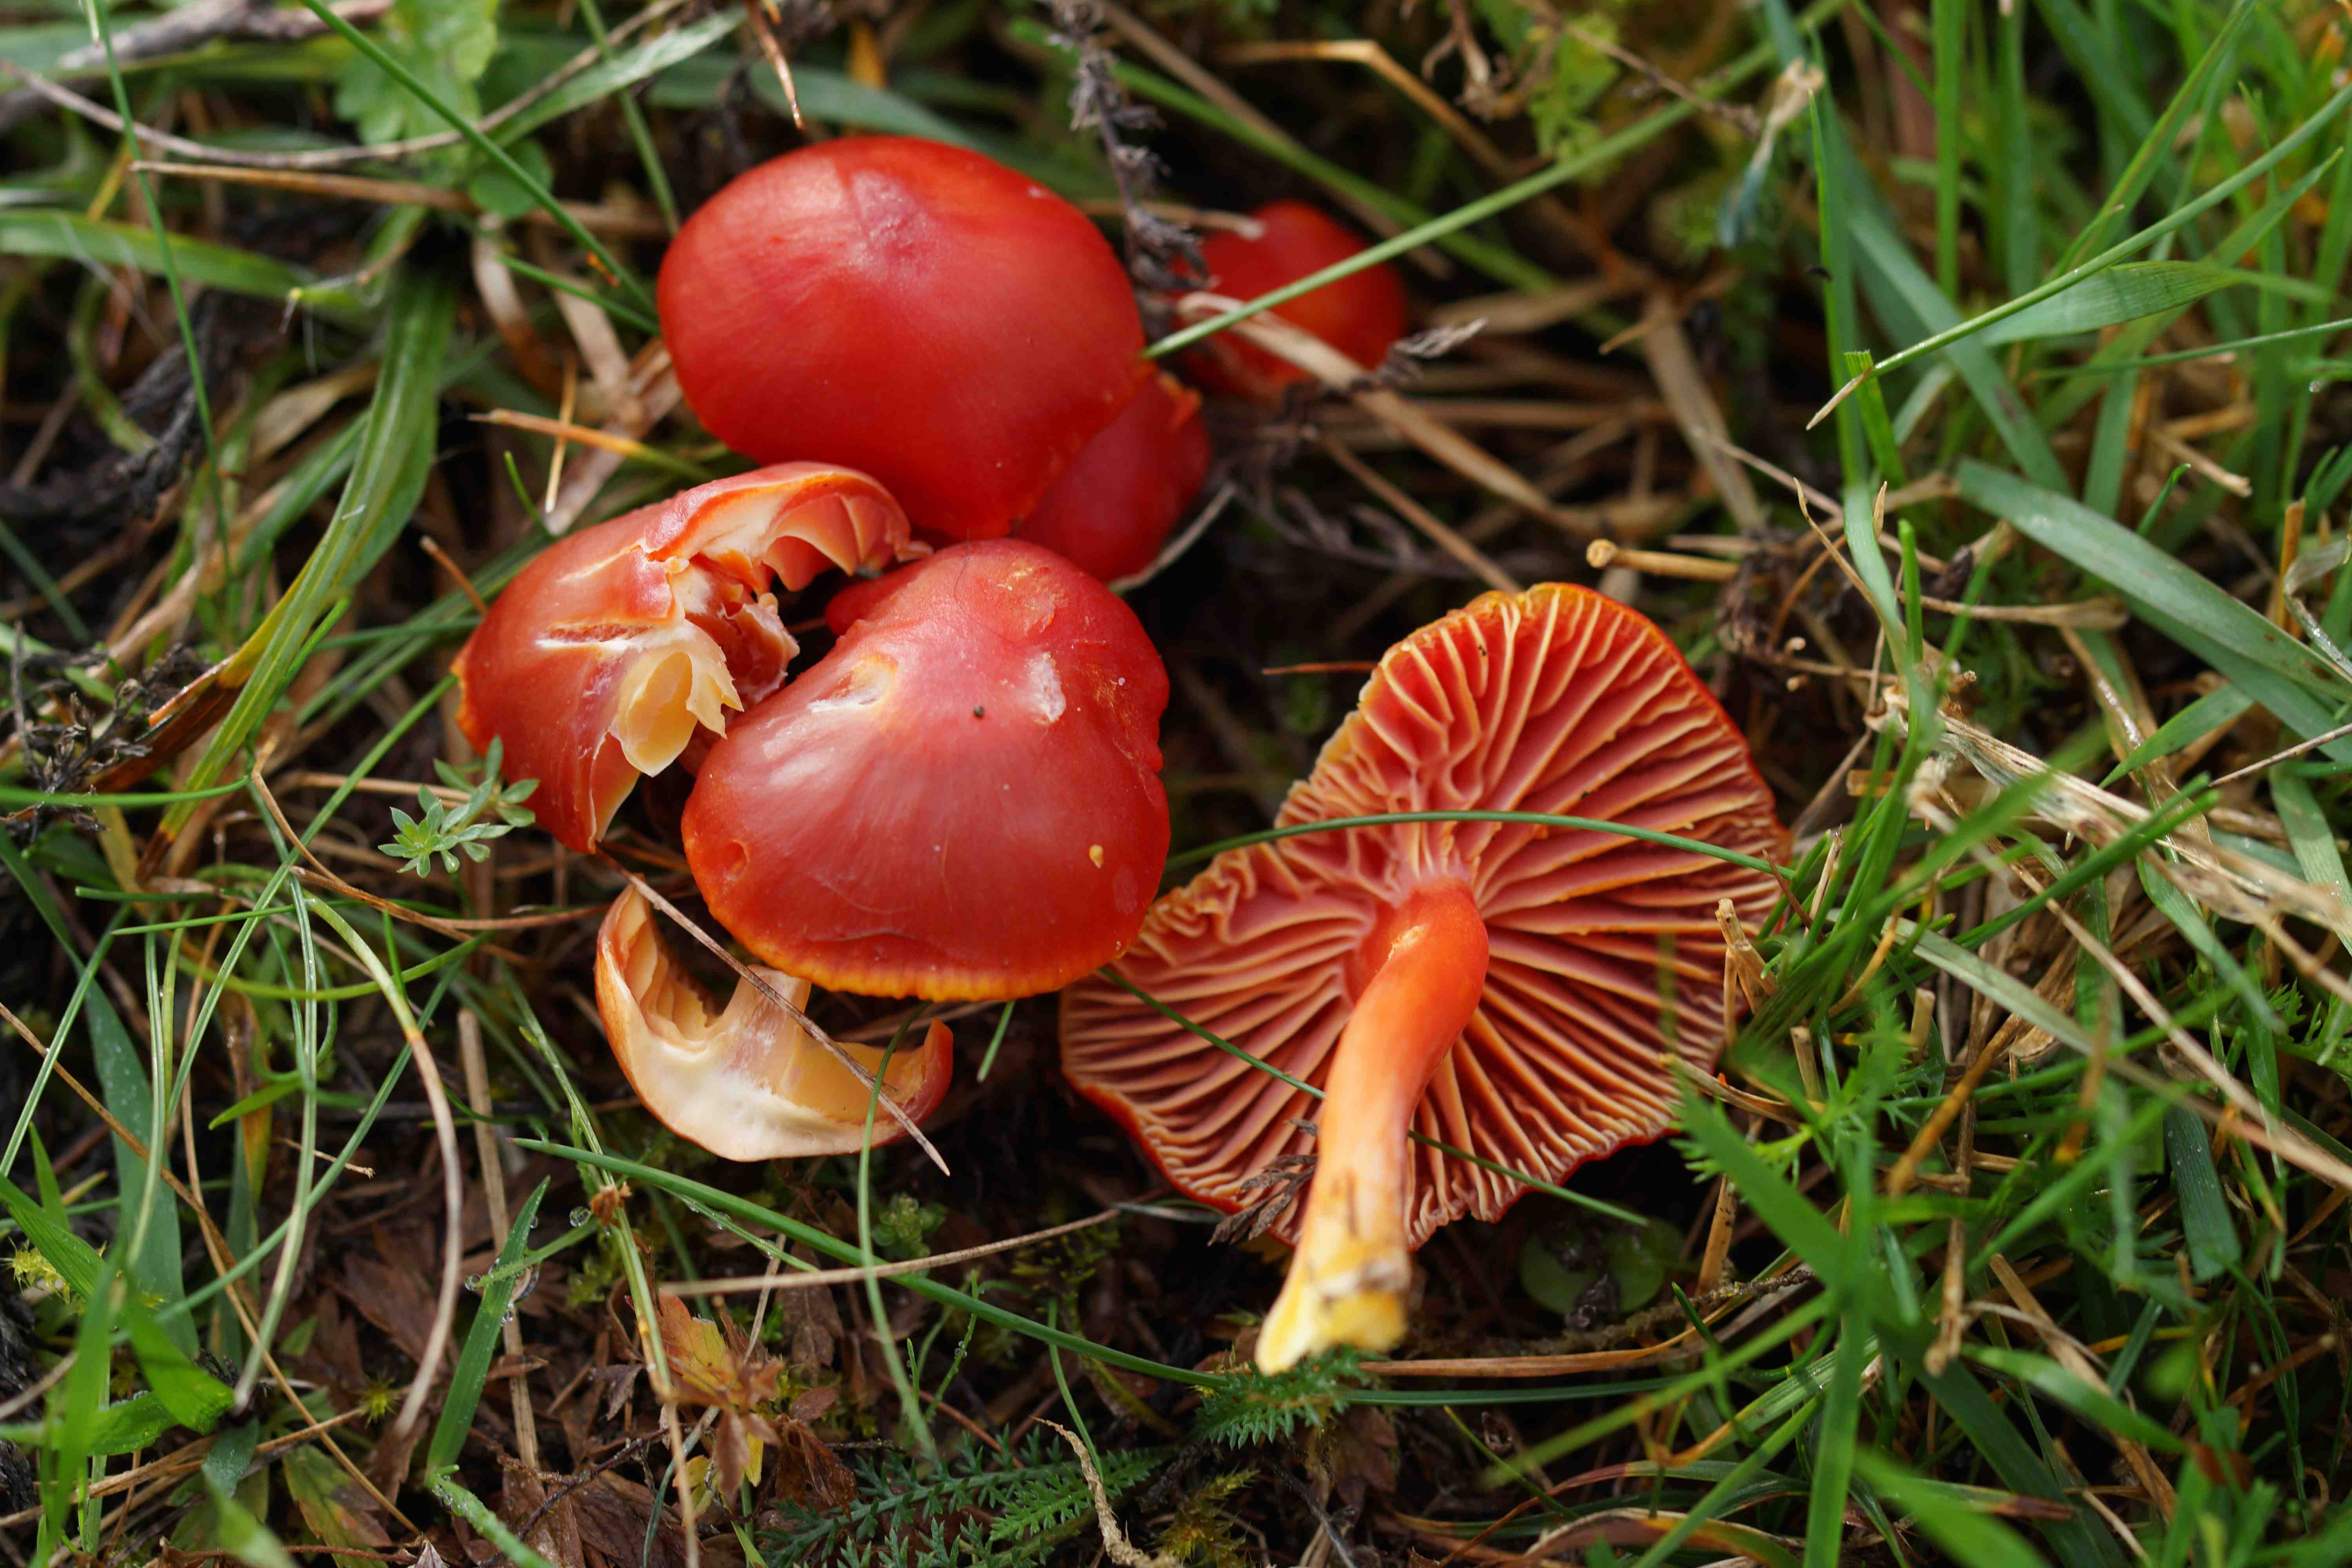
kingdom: Fungi
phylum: Basidiomycota
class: Agaricomycetes
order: Agaricales
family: Hygrophoraceae
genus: Hygrocybe
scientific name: Hygrocybe coccinea
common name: cinnober-vokshat
